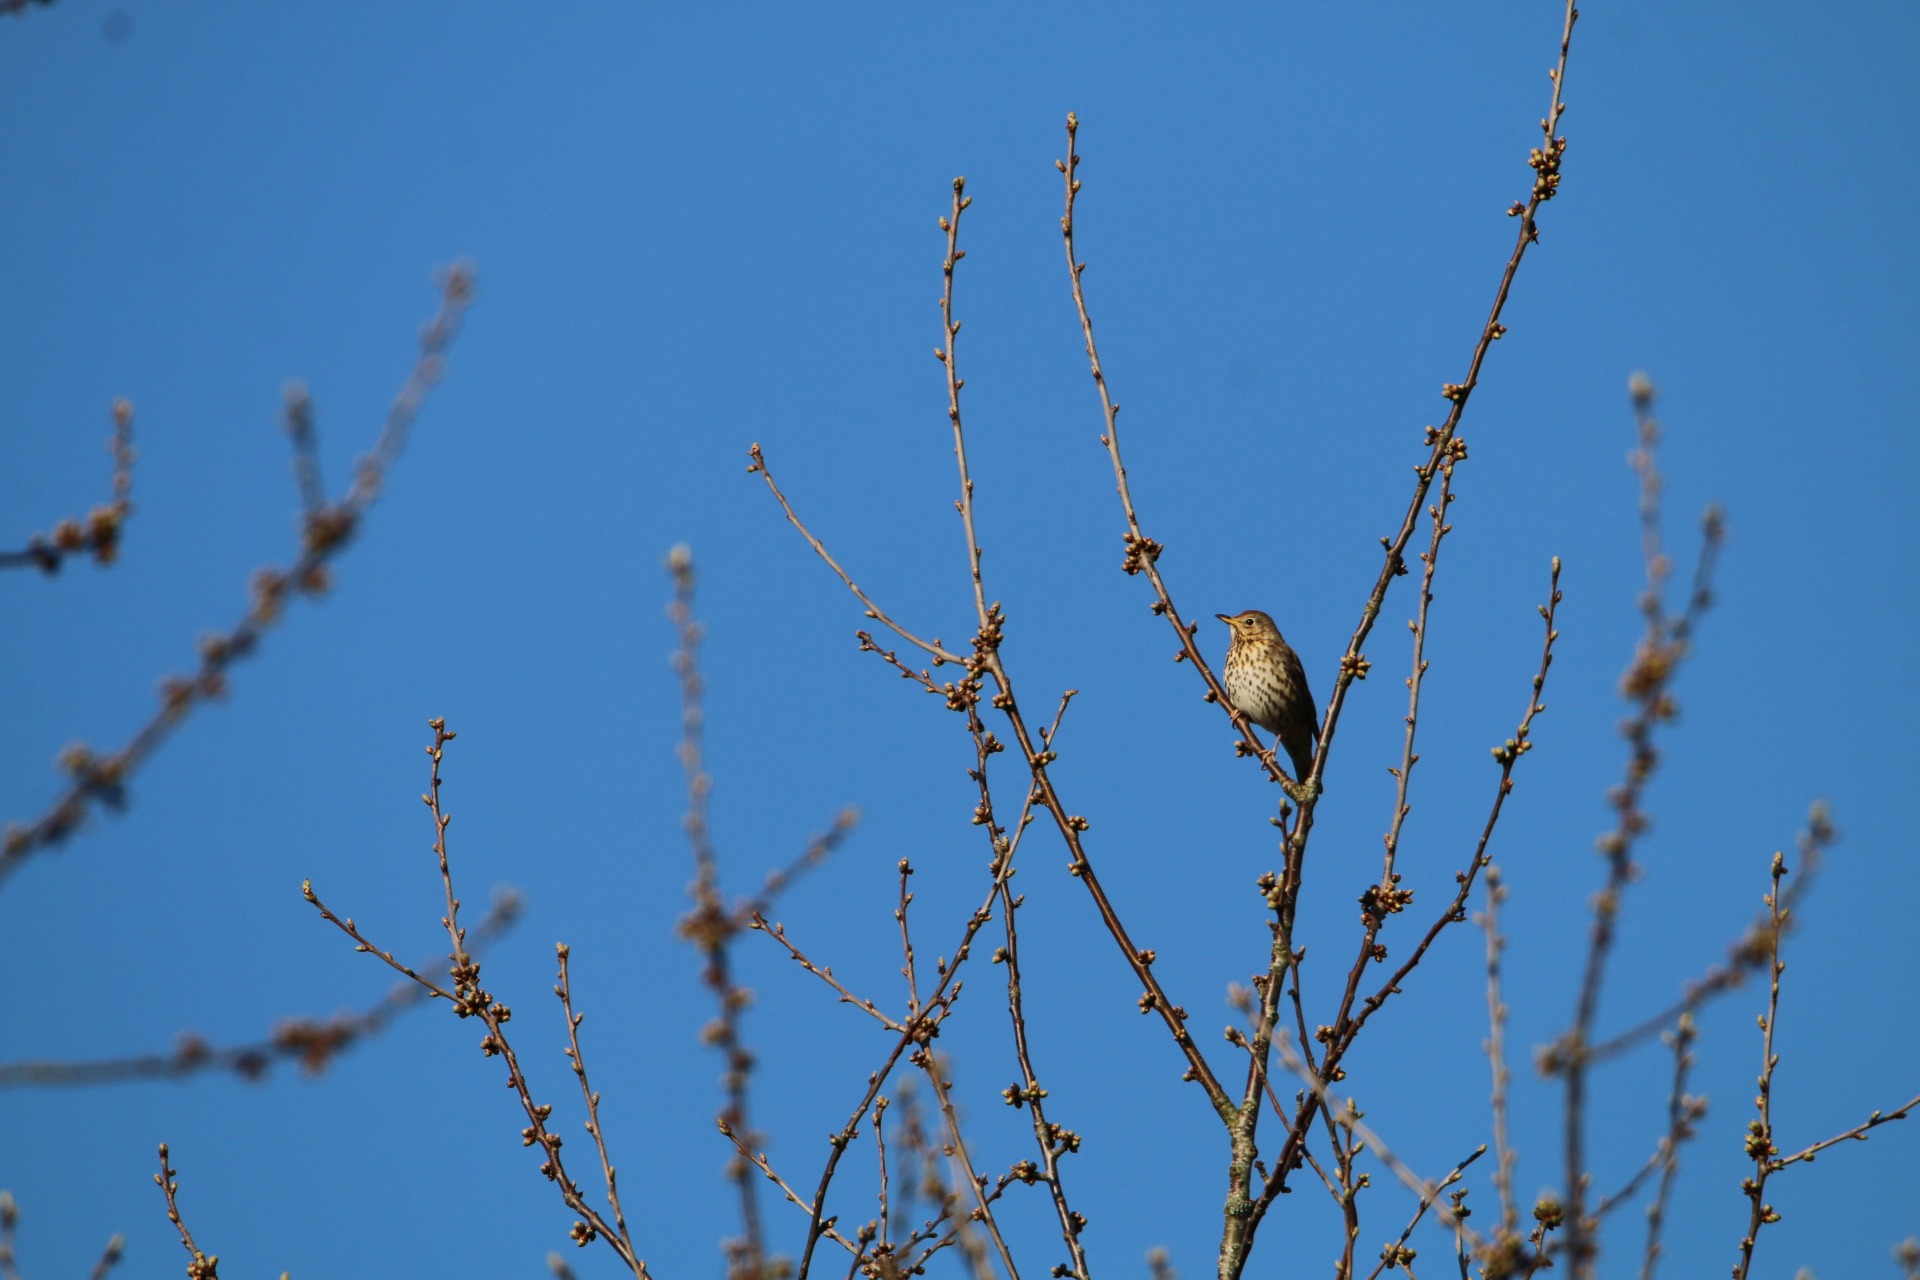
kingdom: Animalia
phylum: Chordata
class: Aves
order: Passeriformes
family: Turdidae
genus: Turdus
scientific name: Turdus philomelos
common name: Sangdrossel
